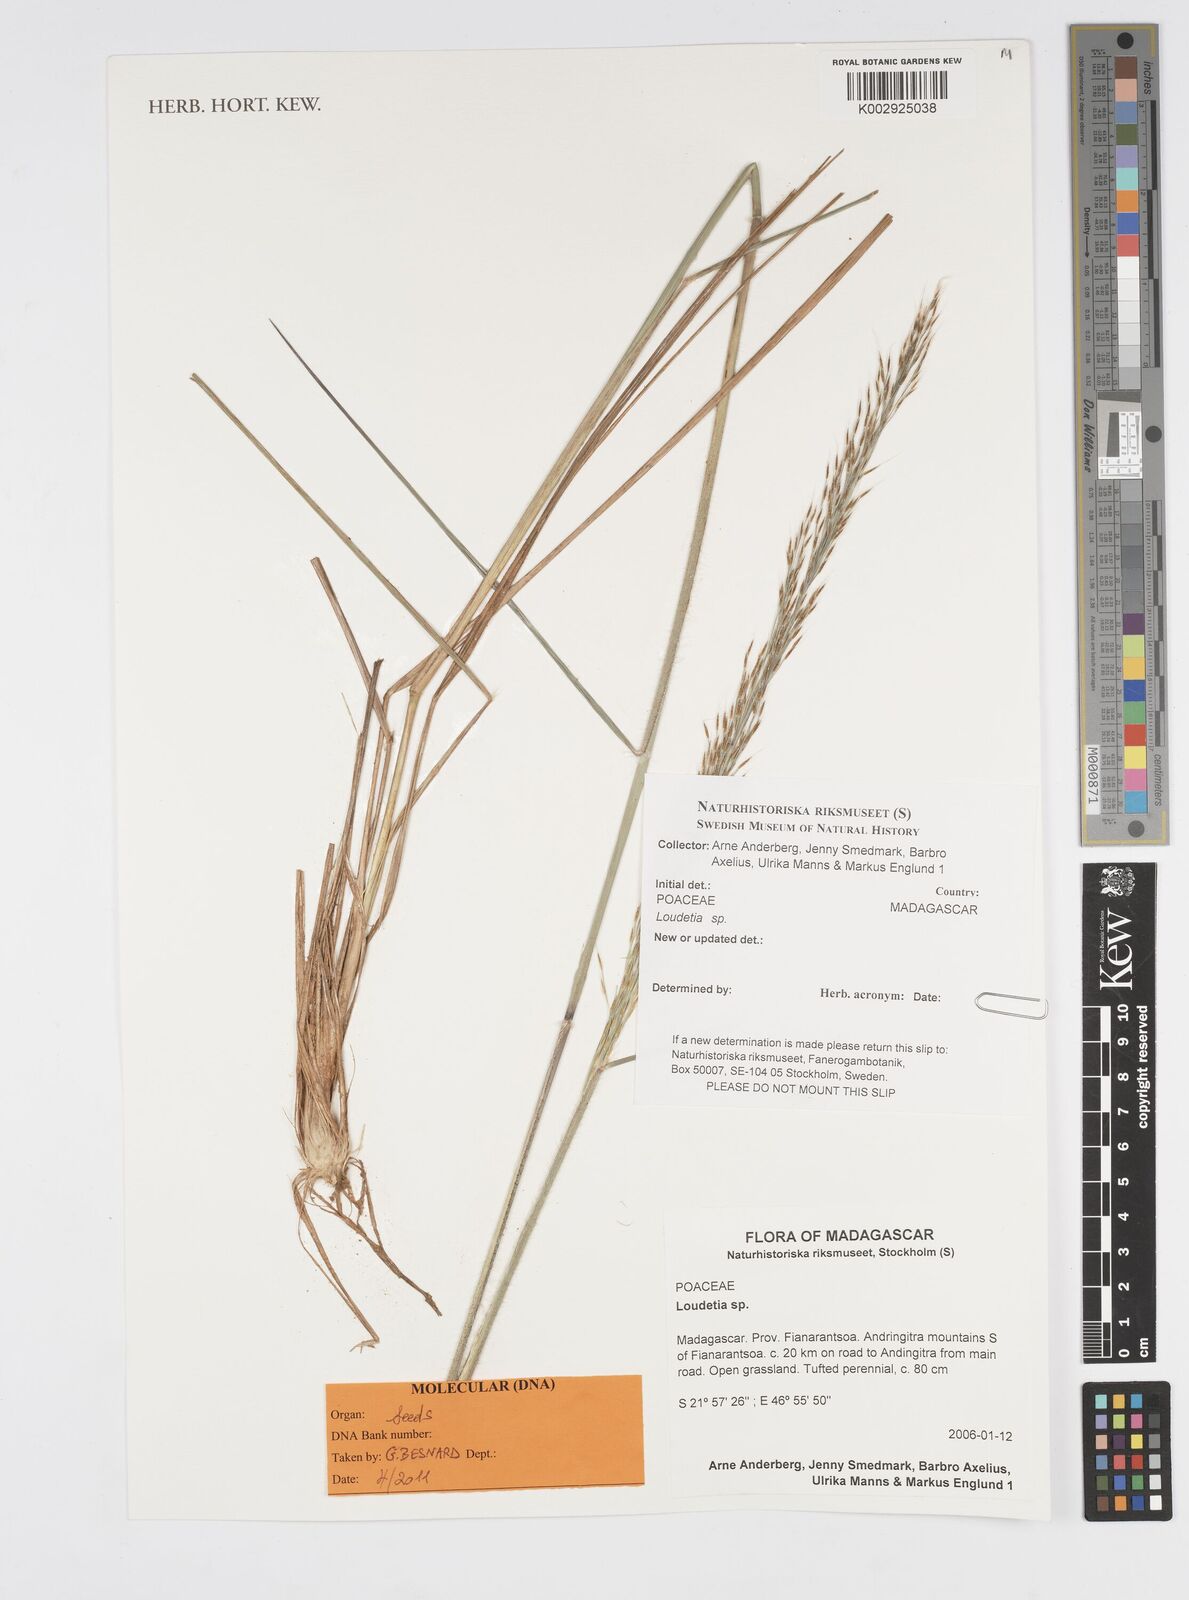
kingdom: Plantae
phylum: Tracheophyta
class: Liliopsida
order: Poales
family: Poaceae
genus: Loudetia
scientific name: Loudetia
